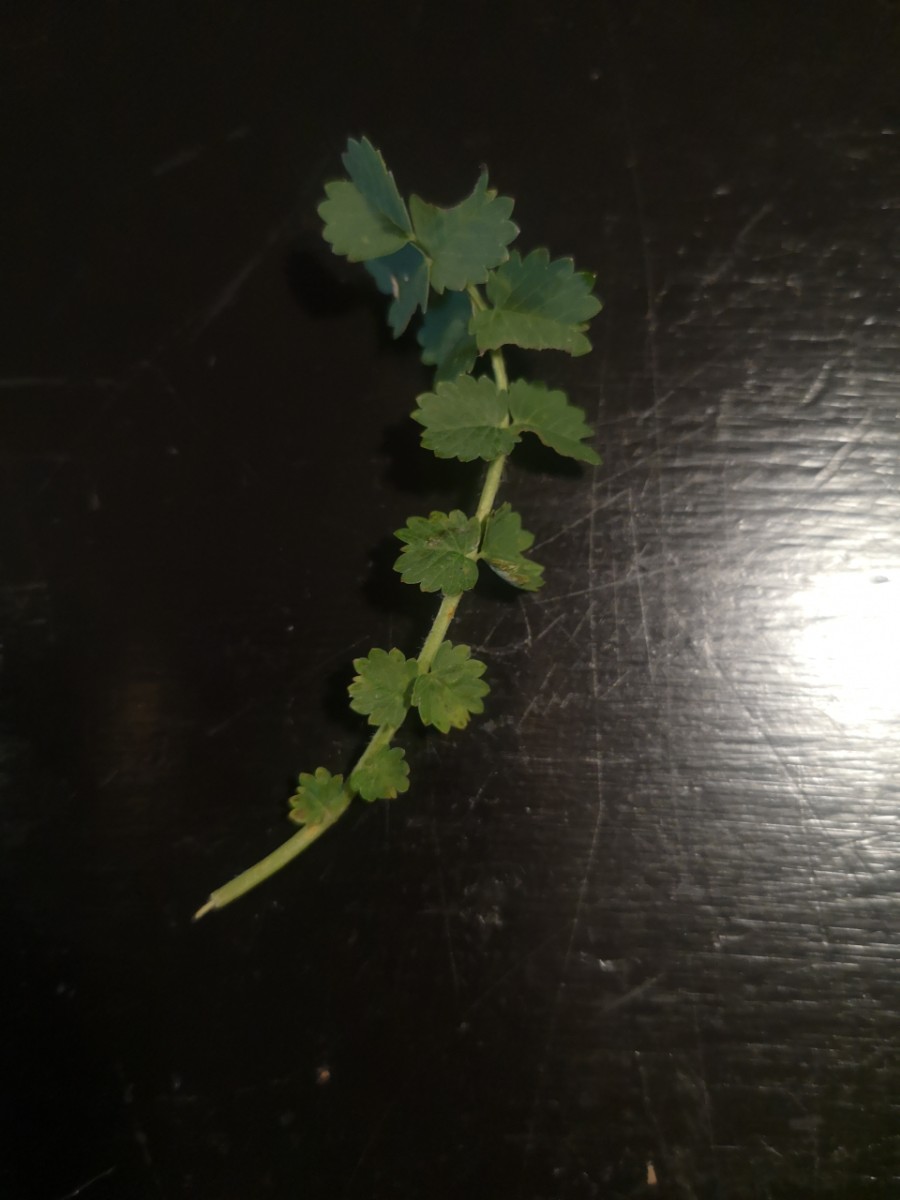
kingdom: Fungi
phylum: Basidiomycota
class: Pucciniomycetes
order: Pucciniales
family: Phragmidiaceae
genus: Phragmidium
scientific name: Phragmidium sanguisorbae
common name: Salad burnet rust
